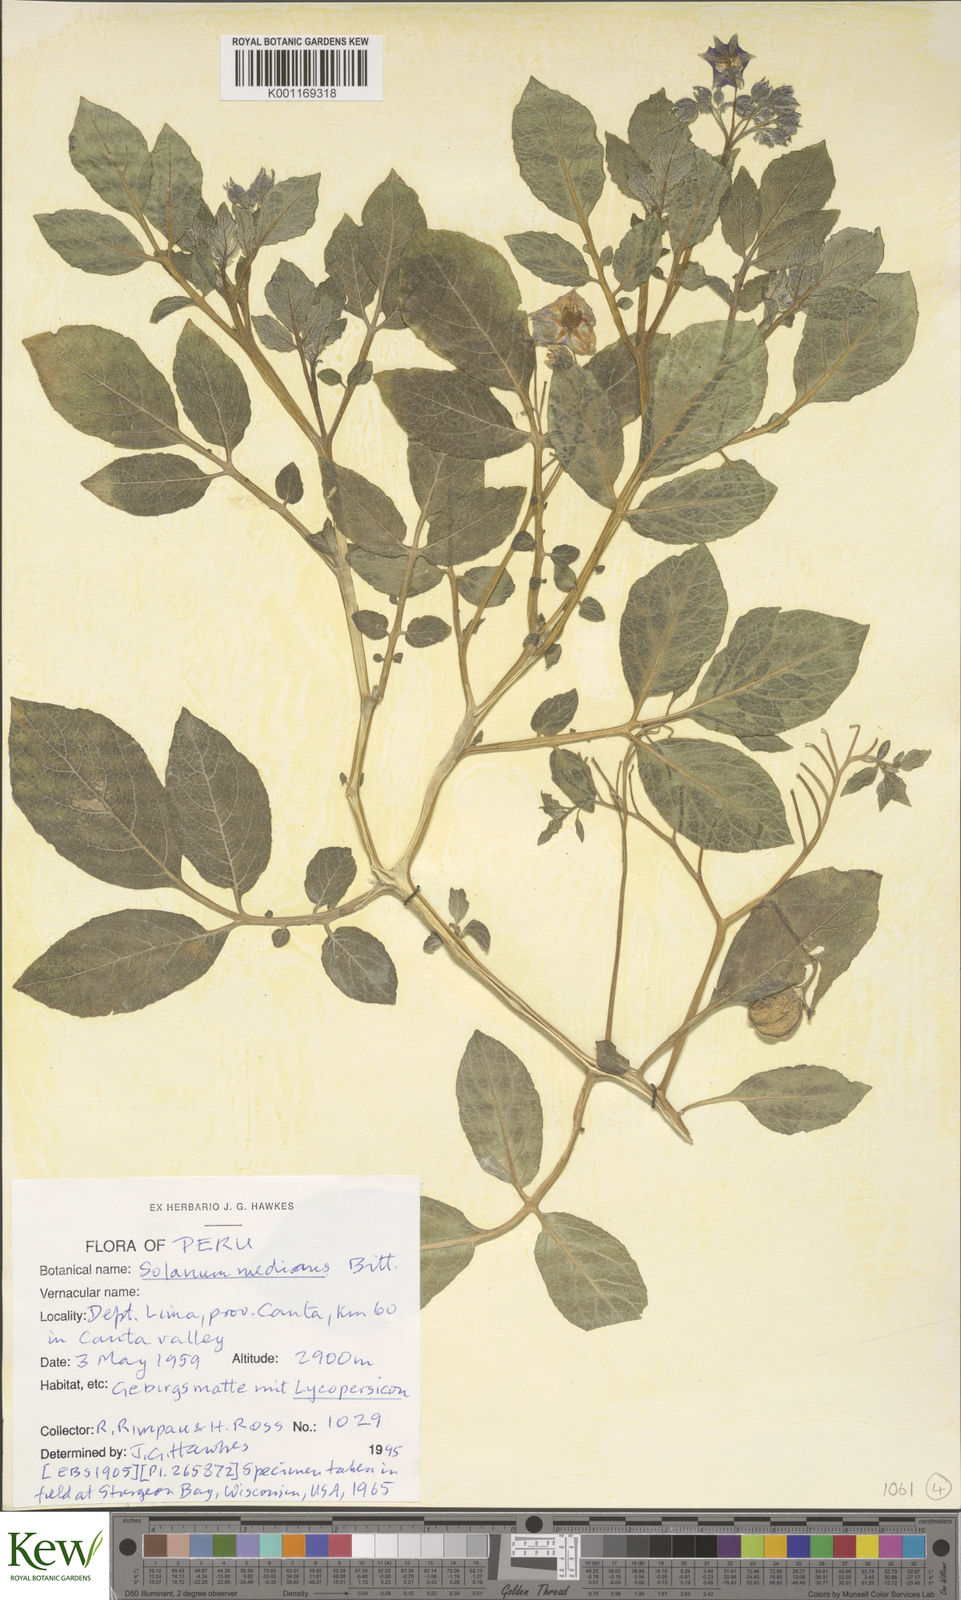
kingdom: Plantae
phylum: Tracheophyta
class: Magnoliopsida
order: Solanales
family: Solanaceae
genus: Solanum
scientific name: Solanum medians
